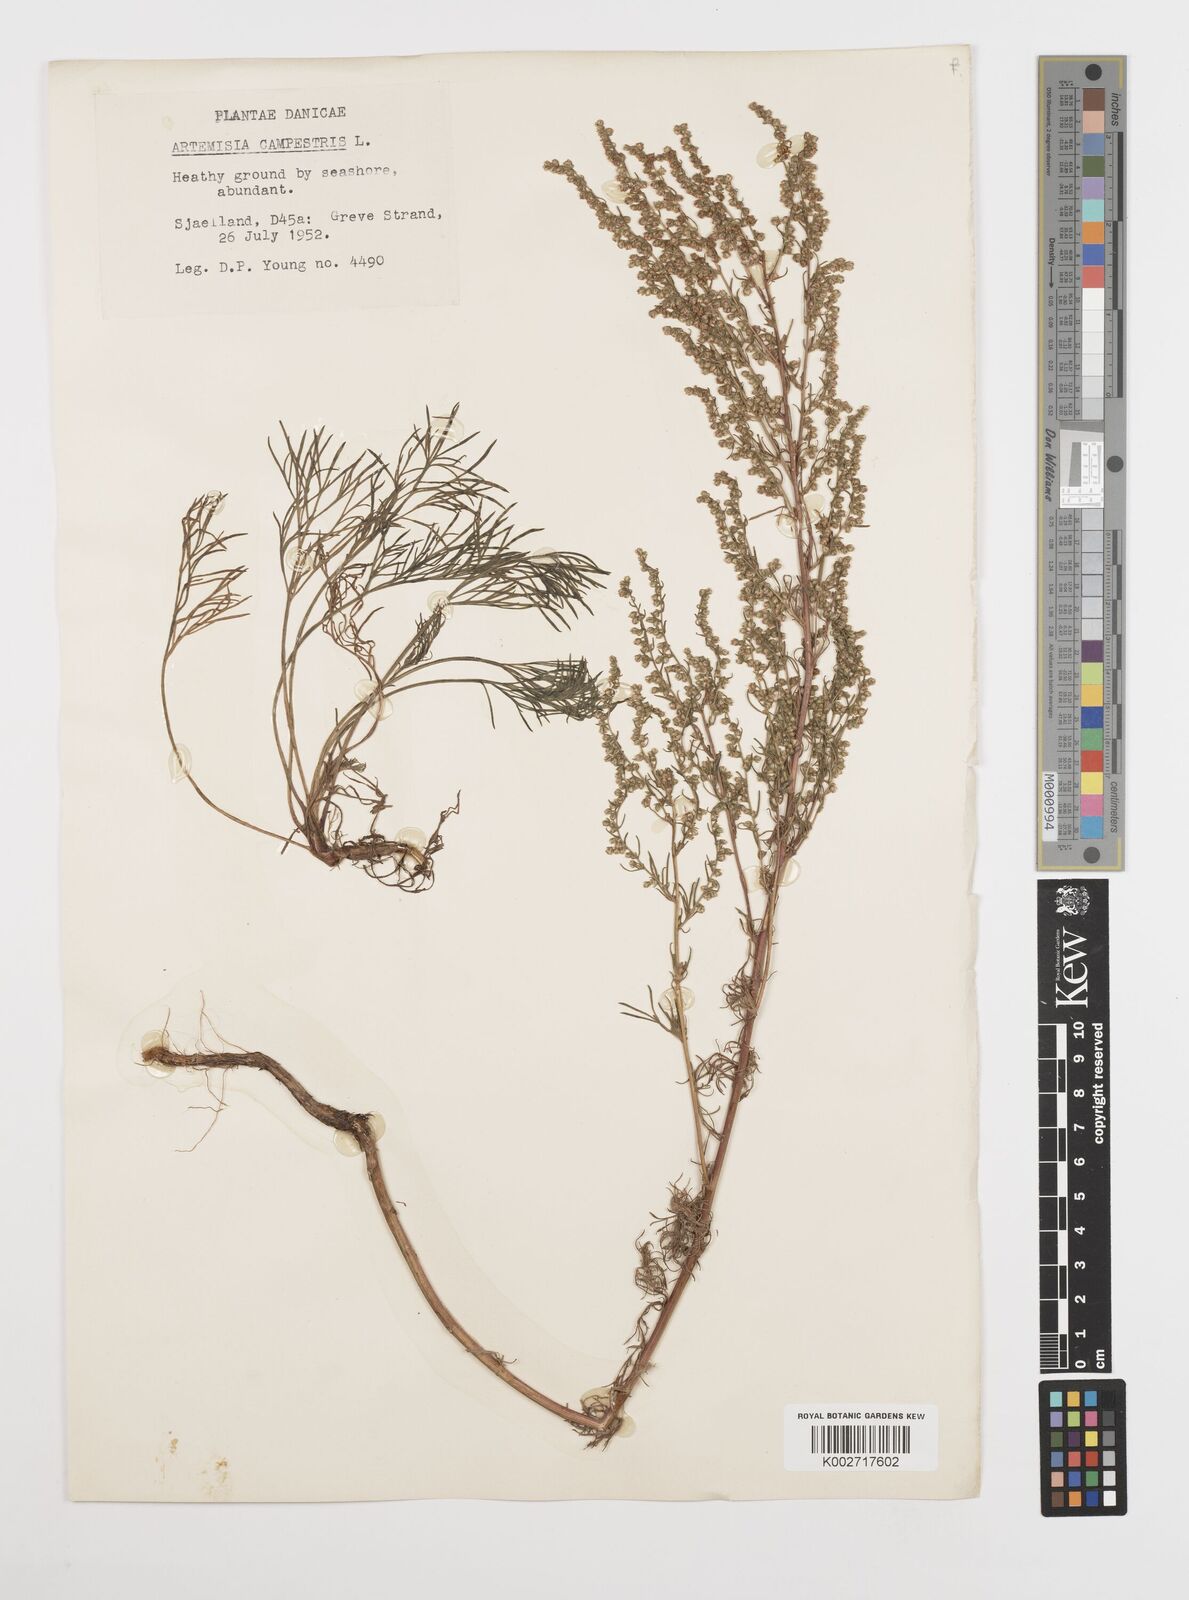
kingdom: Plantae
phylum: Tracheophyta
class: Magnoliopsida
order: Asterales
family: Asteraceae
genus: Artemisia
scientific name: Artemisia campestris
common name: Field wormwood
